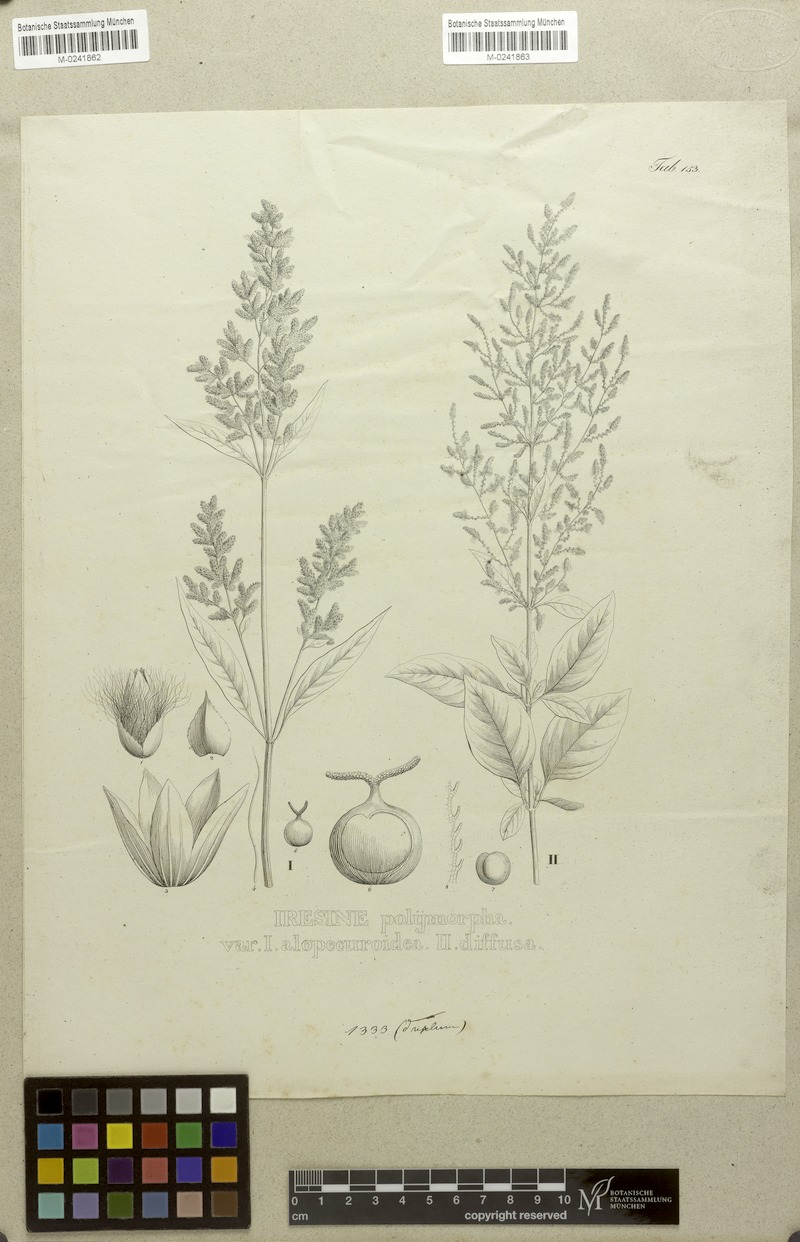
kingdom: Plantae
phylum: Tracheophyta
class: Magnoliopsida
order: Caryophyllales
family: Amaranthaceae
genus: Iresine
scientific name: Iresine diffusa
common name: Juba's-bush
